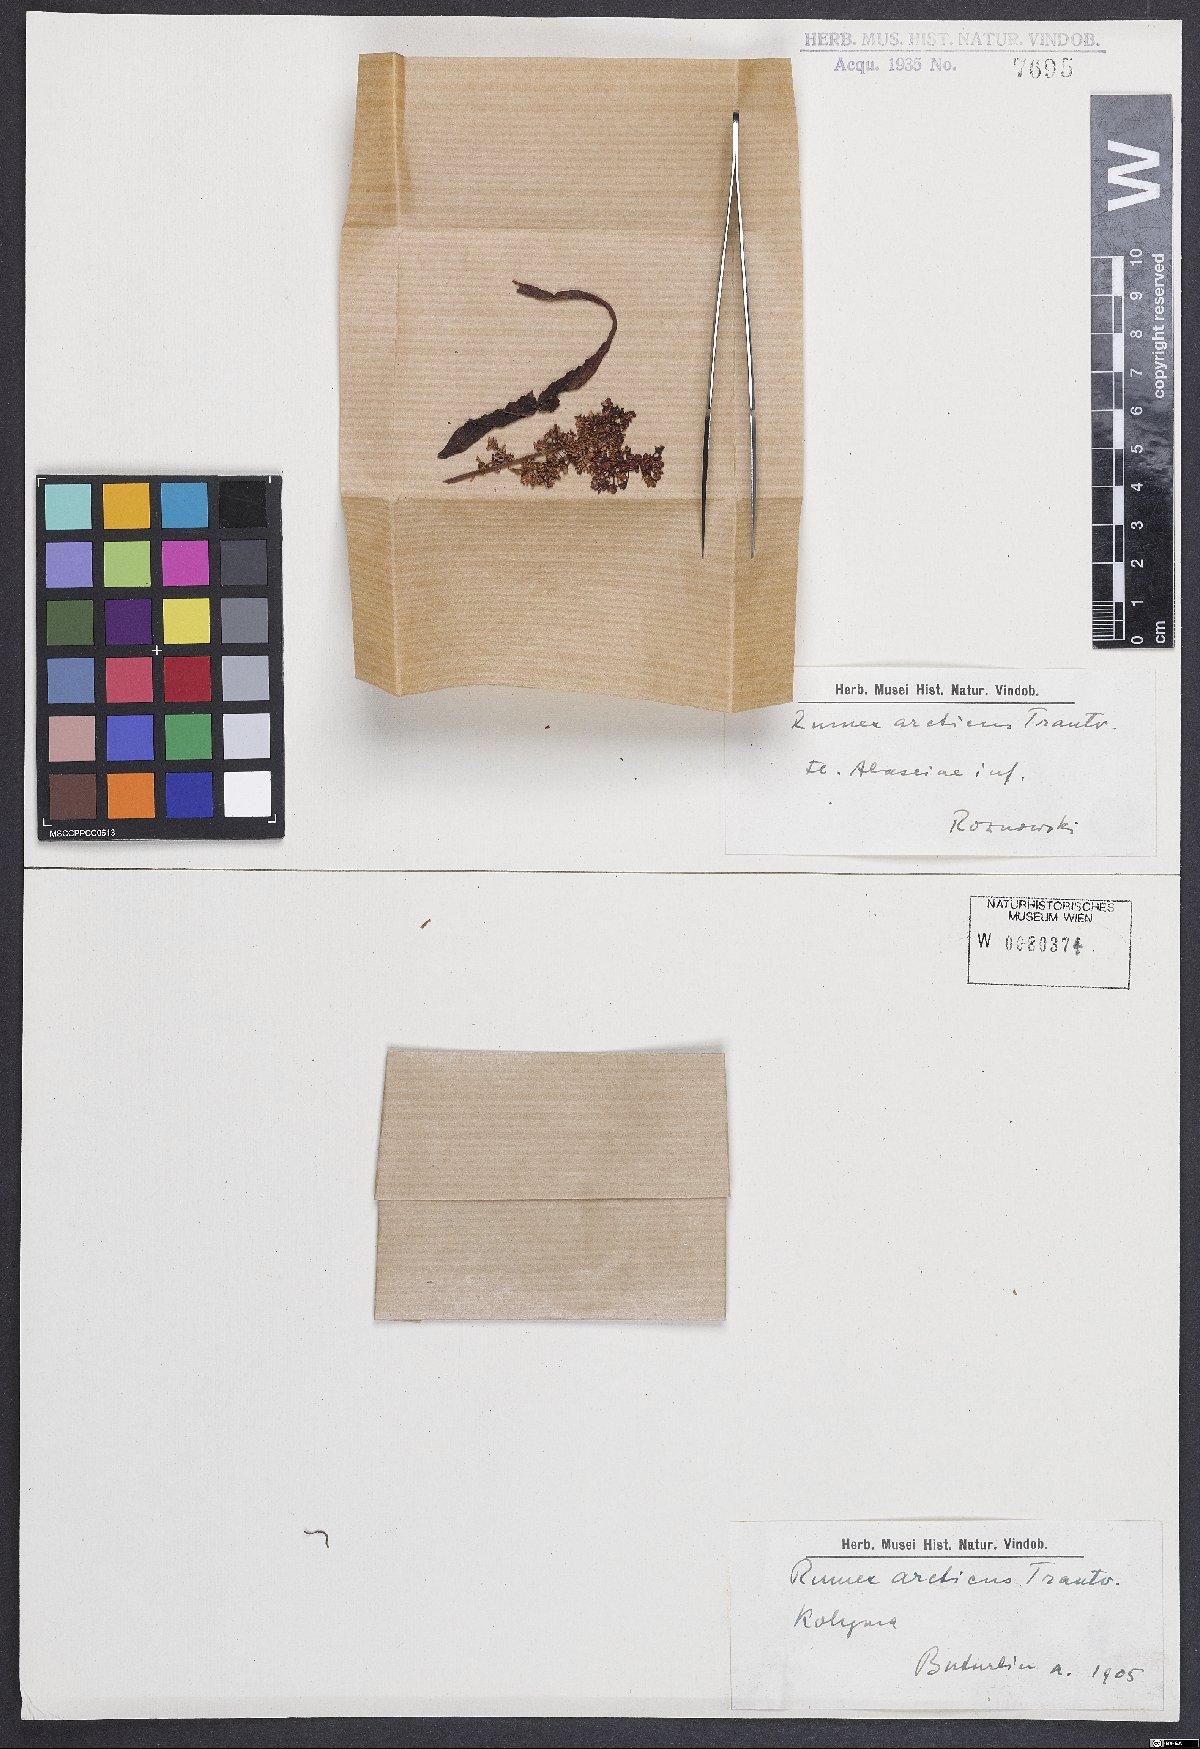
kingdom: Plantae
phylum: Tracheophyta
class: Magnoliopsida
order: Caryophyllales
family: Polygonaceae
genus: Rumex
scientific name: Rumex arcticus
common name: Arctic dock
